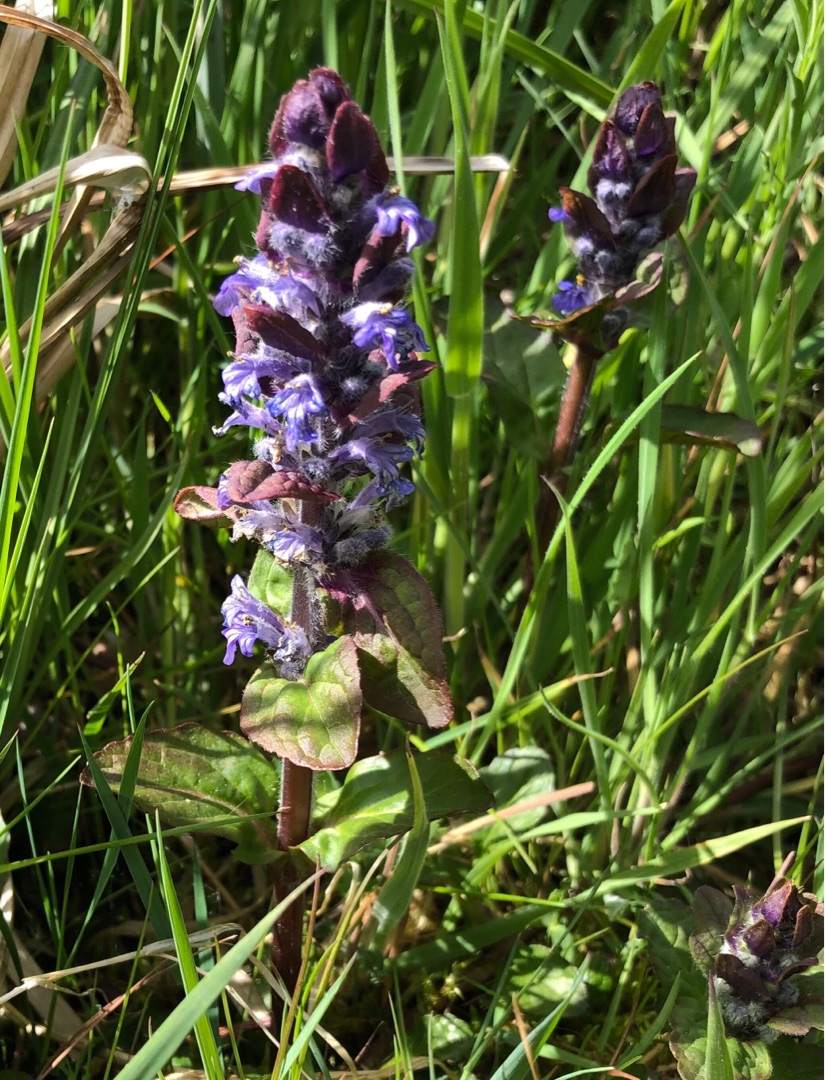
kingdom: Plantae
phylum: Tracheophyta
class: Magnoliopsida
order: Lamiales
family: Lamiaceae
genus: Ajuga
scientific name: Ajuga reptans
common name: Krybende læbeløs
